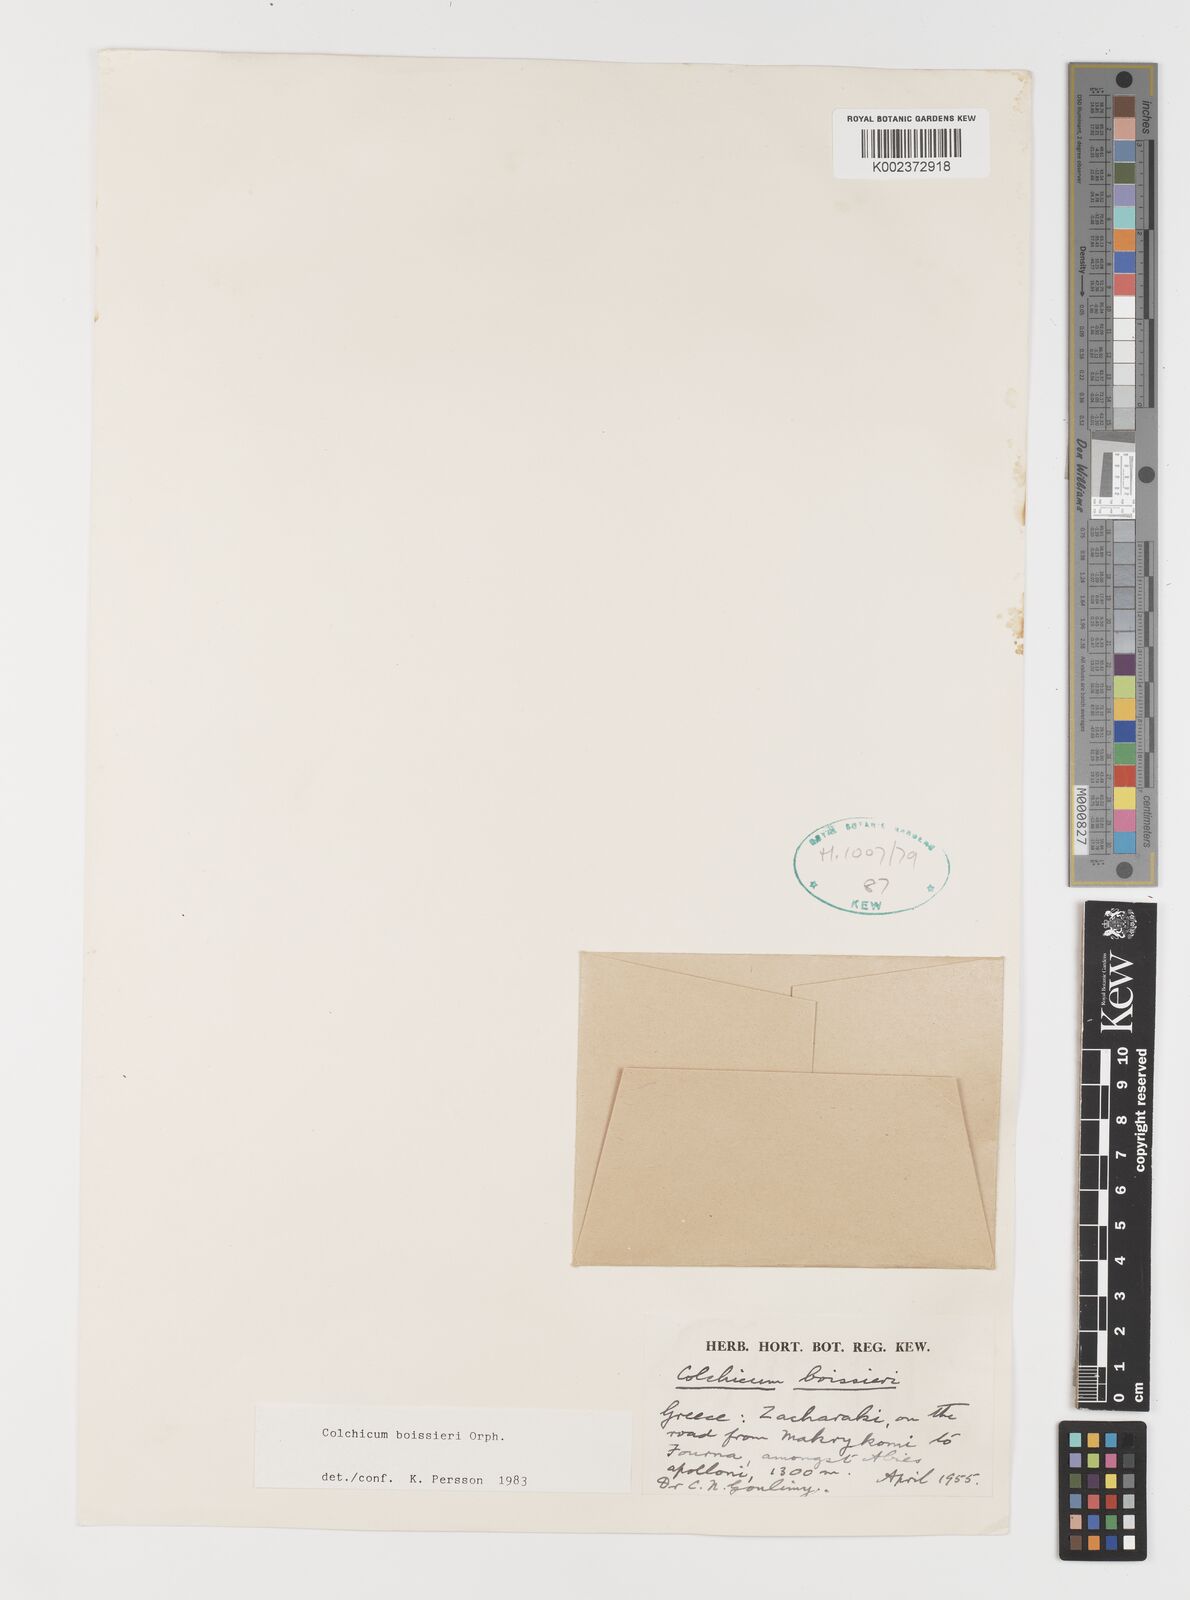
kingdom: Plantae
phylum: Tracheophyta
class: Liliopsida
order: Liliales
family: Colchicaceae
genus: Colchicum
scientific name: Colchicum boissieri
